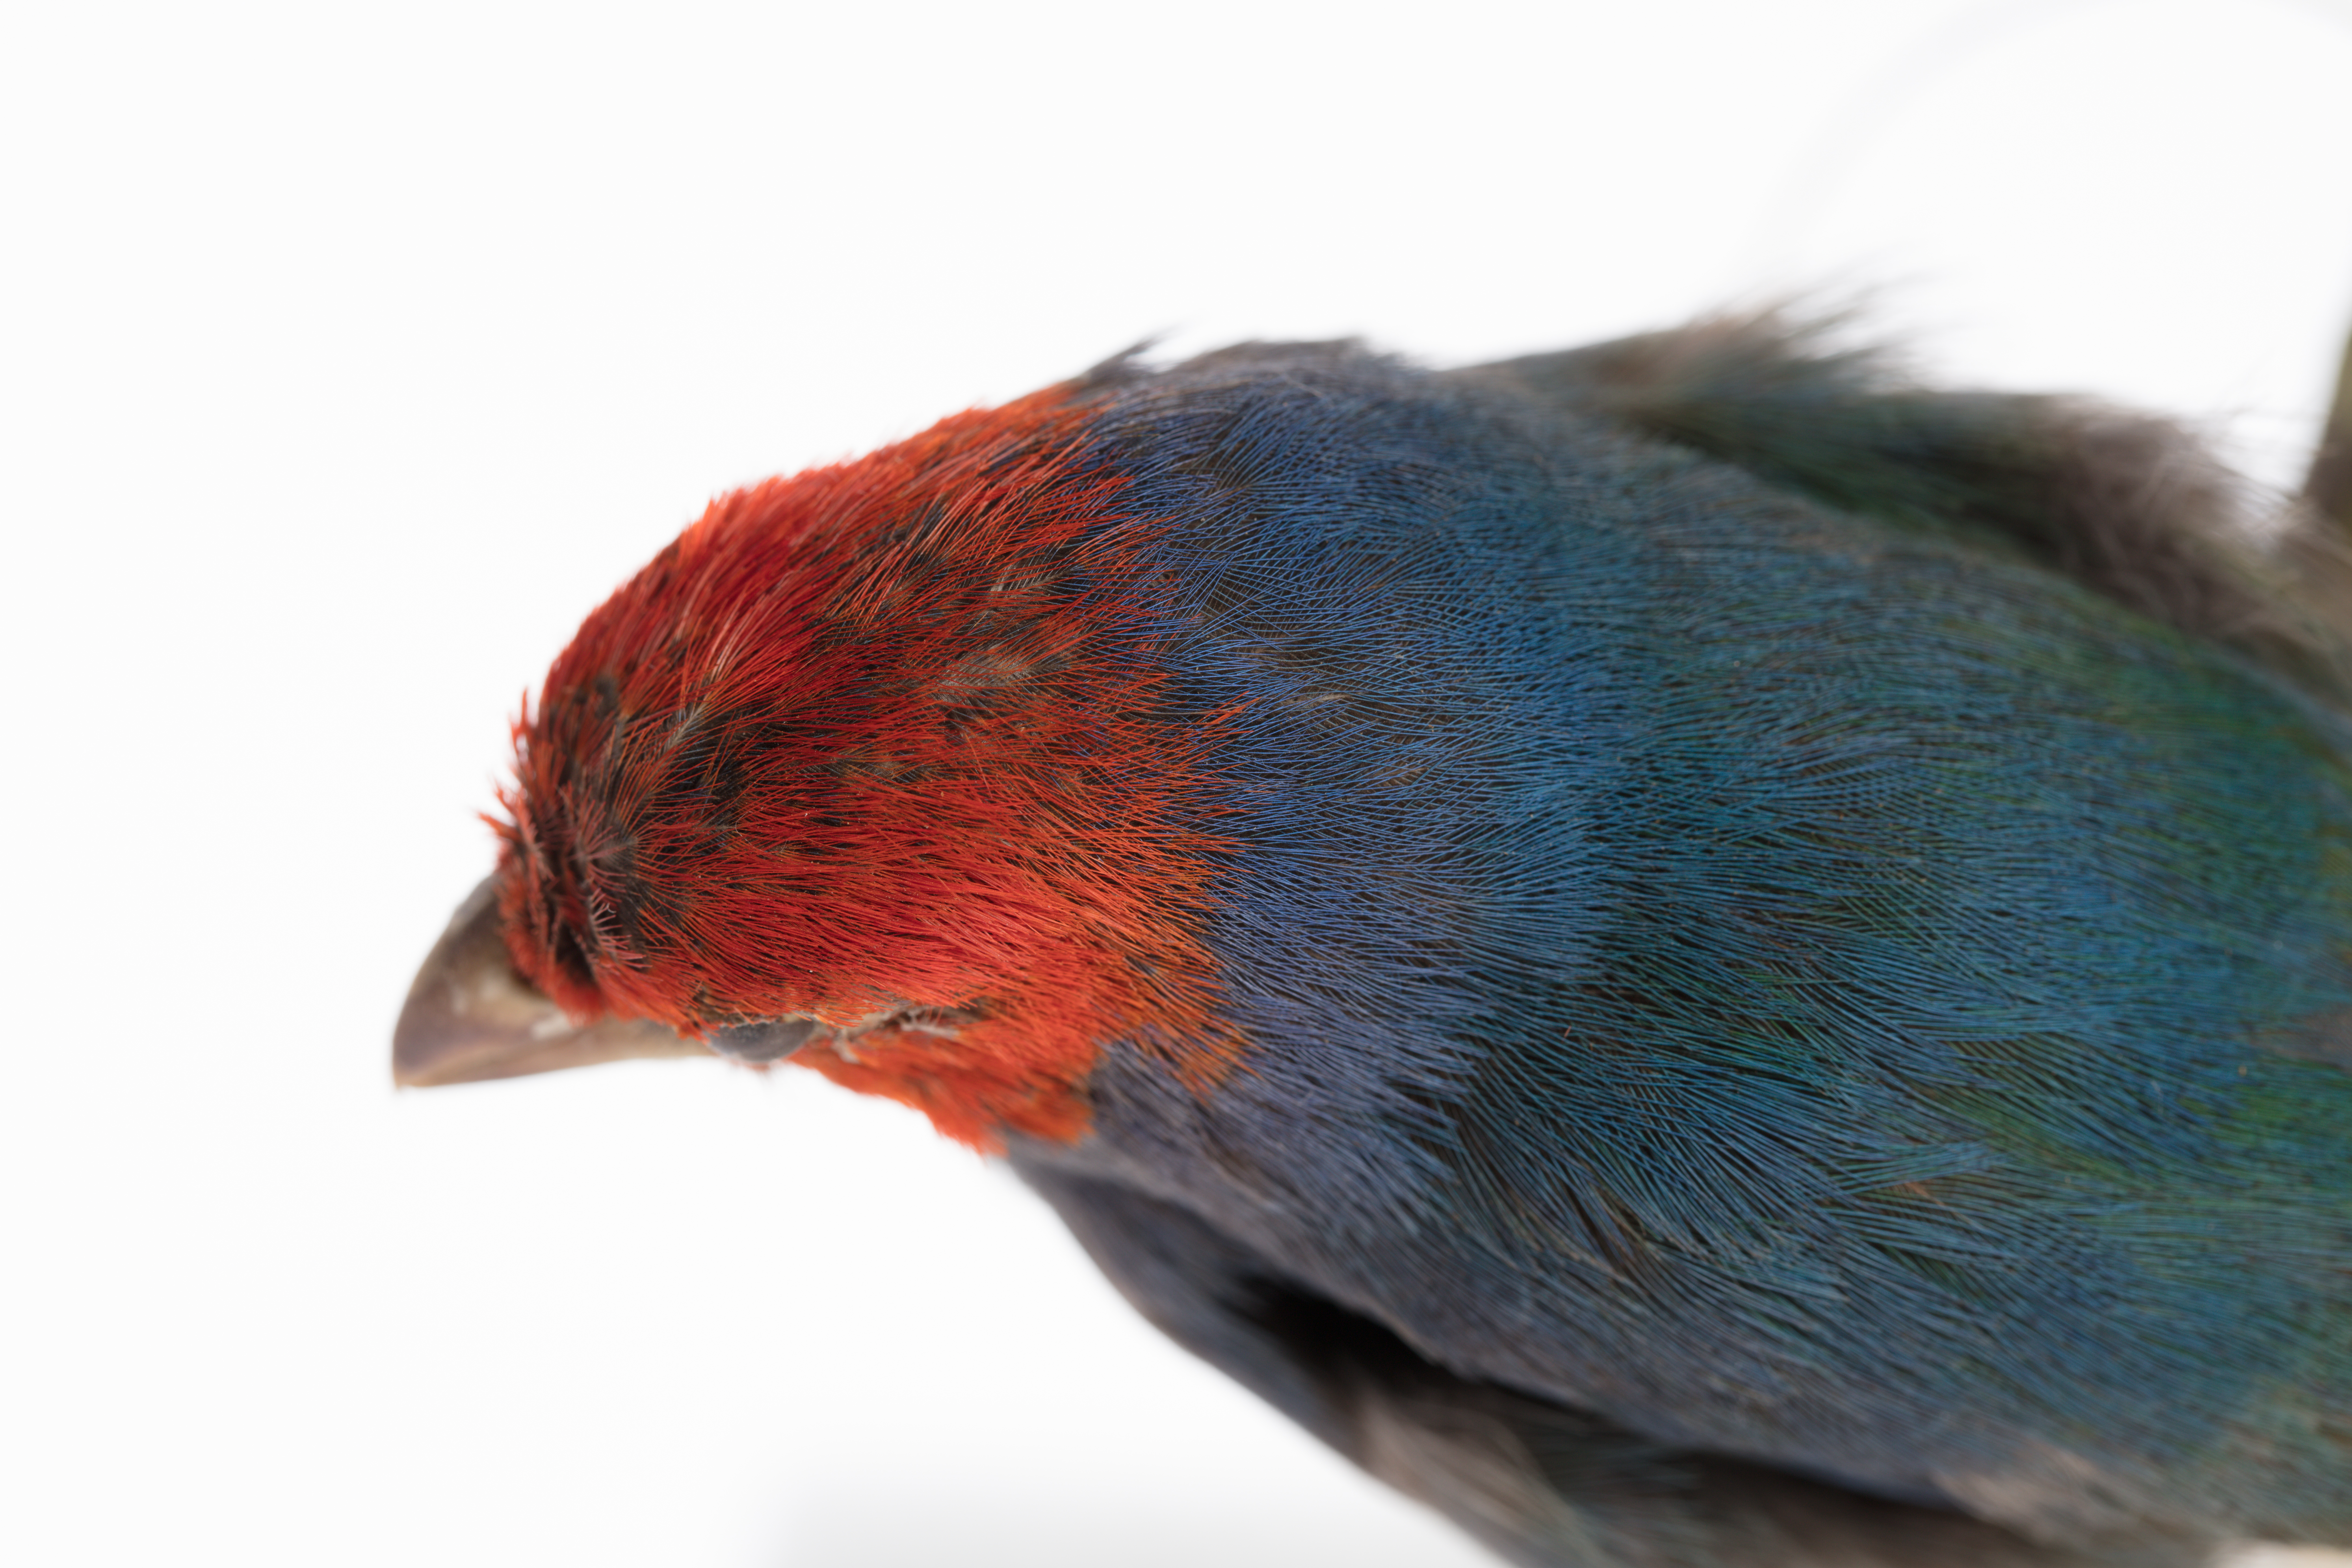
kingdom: Animalia
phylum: Chordata
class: Aves
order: Passeriformes
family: Estrildidae
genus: Erythrura
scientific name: Erythrura cyaneovirens
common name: Red-headed parrotfinch
